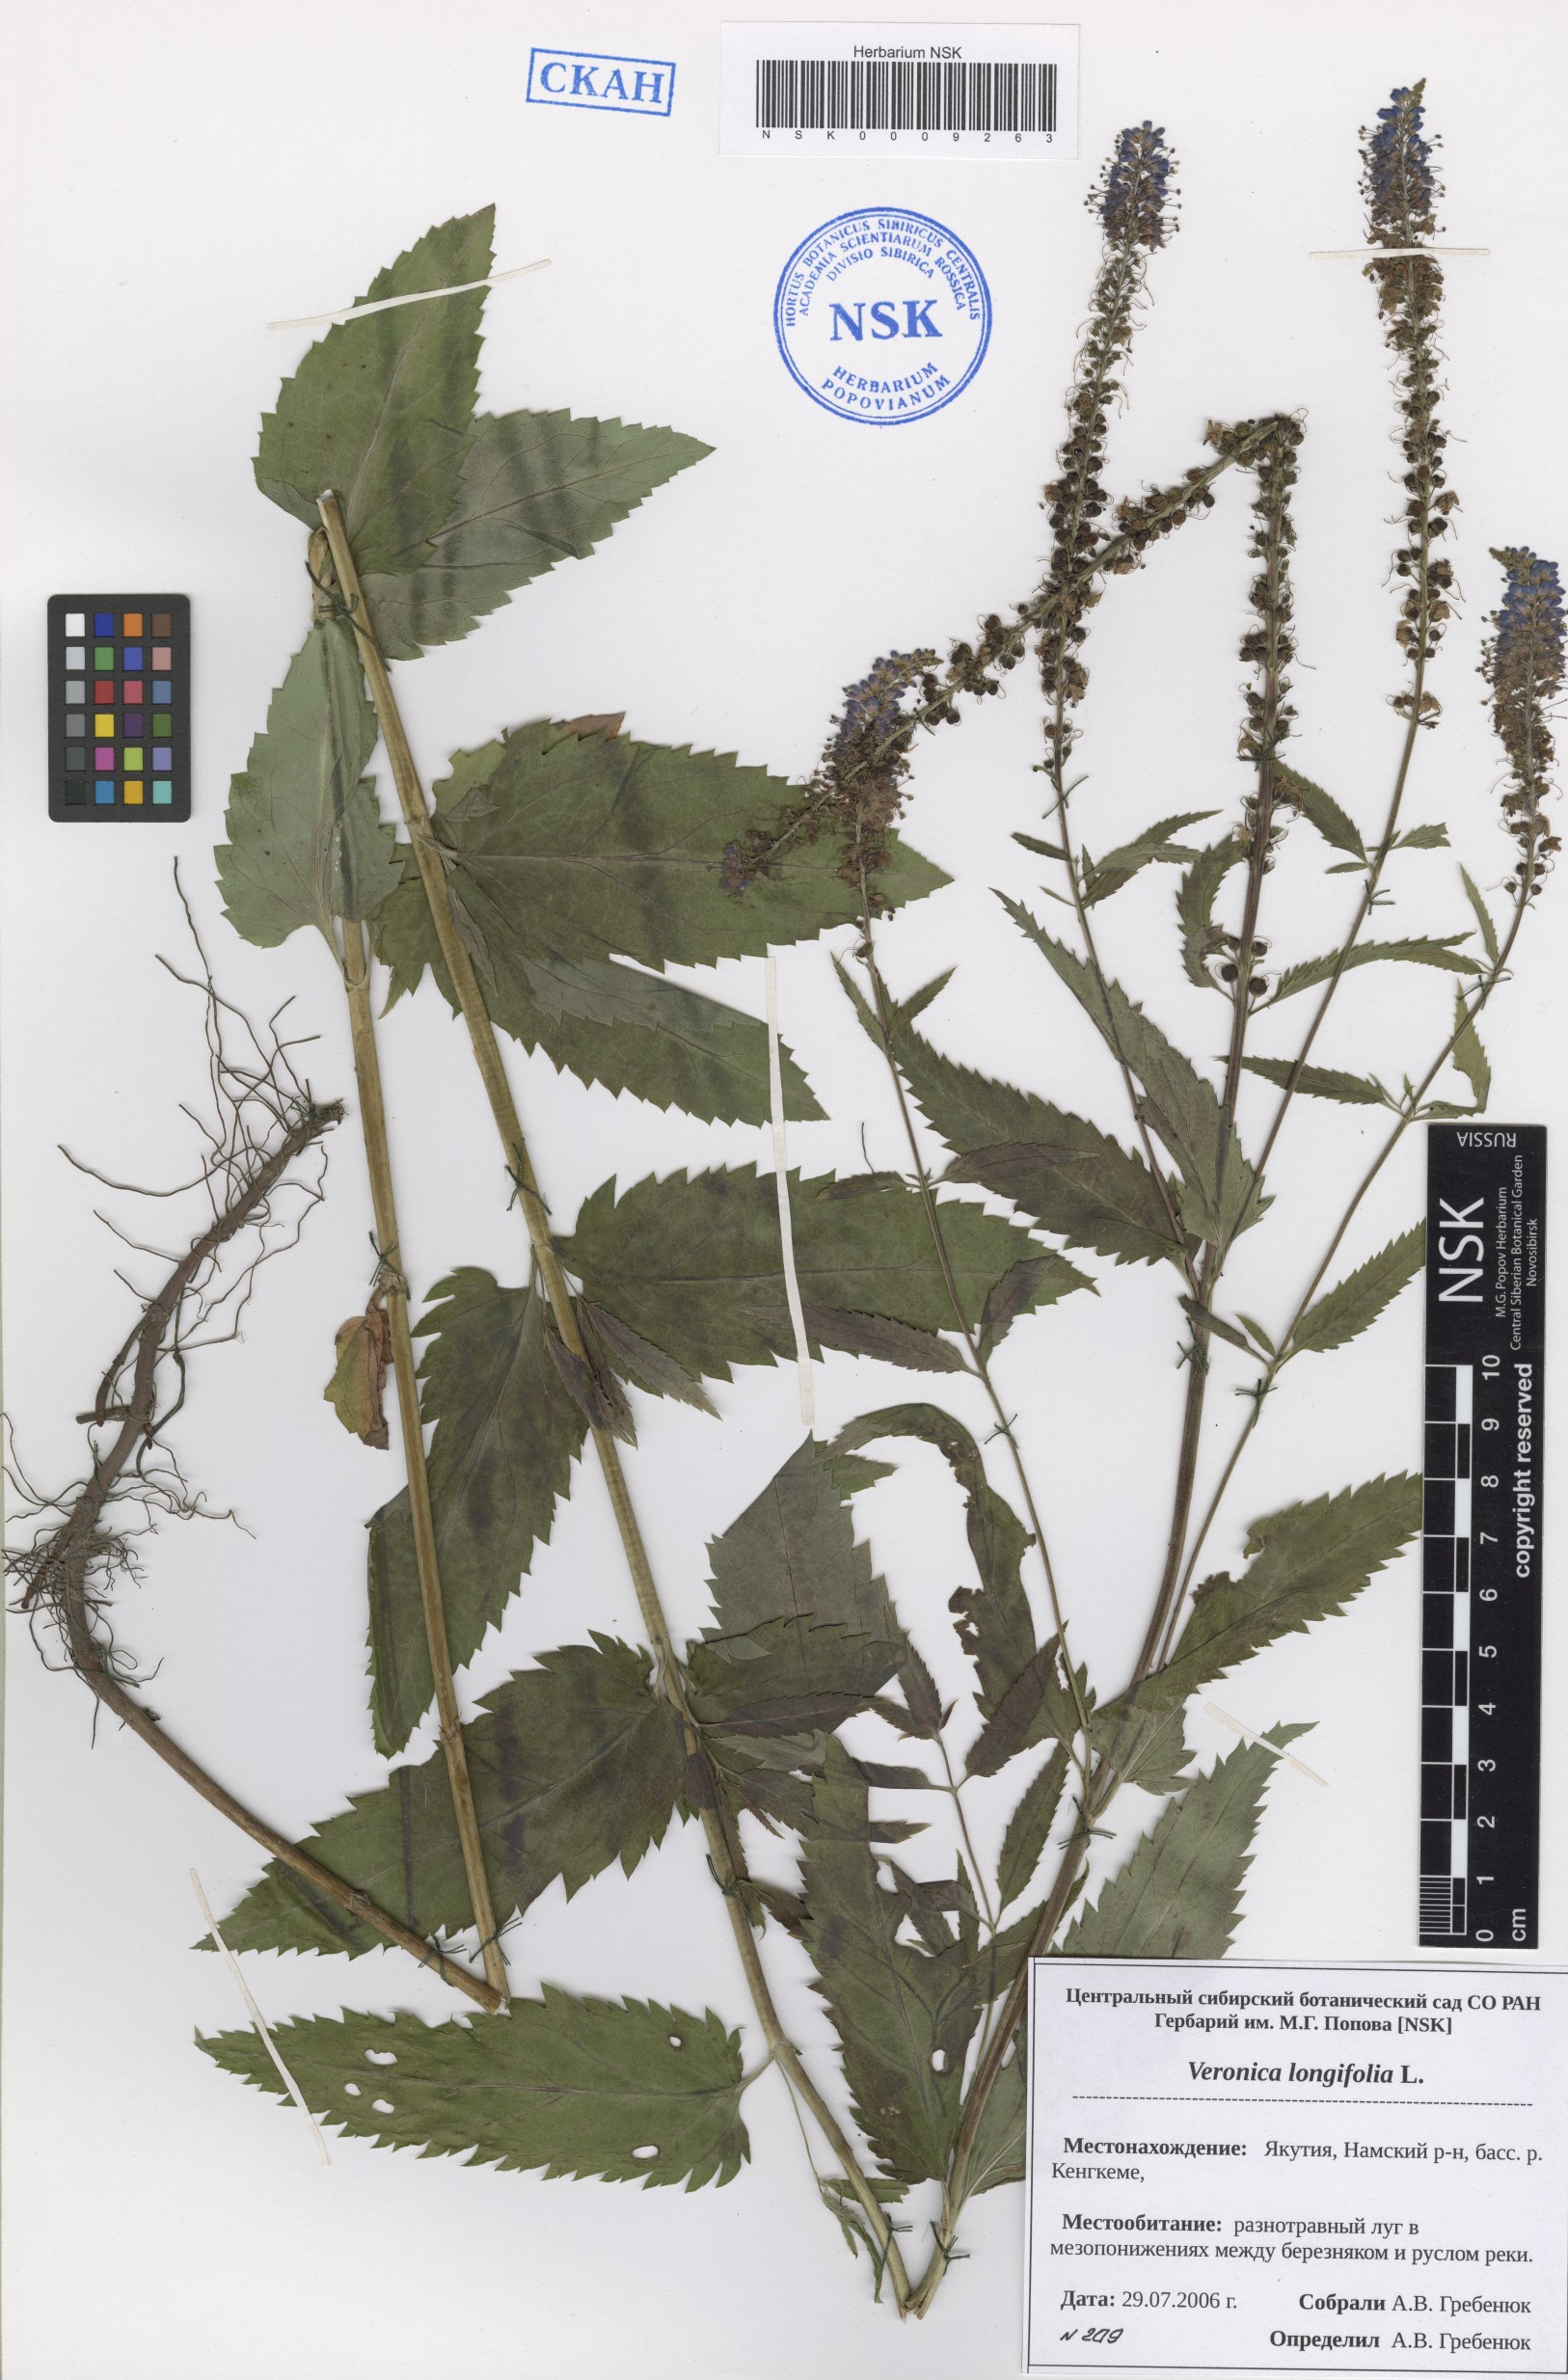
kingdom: Plantae
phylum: Tracheophyta
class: Magnoliopsida
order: Lamiales
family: Plantaginaceae
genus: Veronica
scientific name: Veronica longifolia
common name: Garden speedwell
